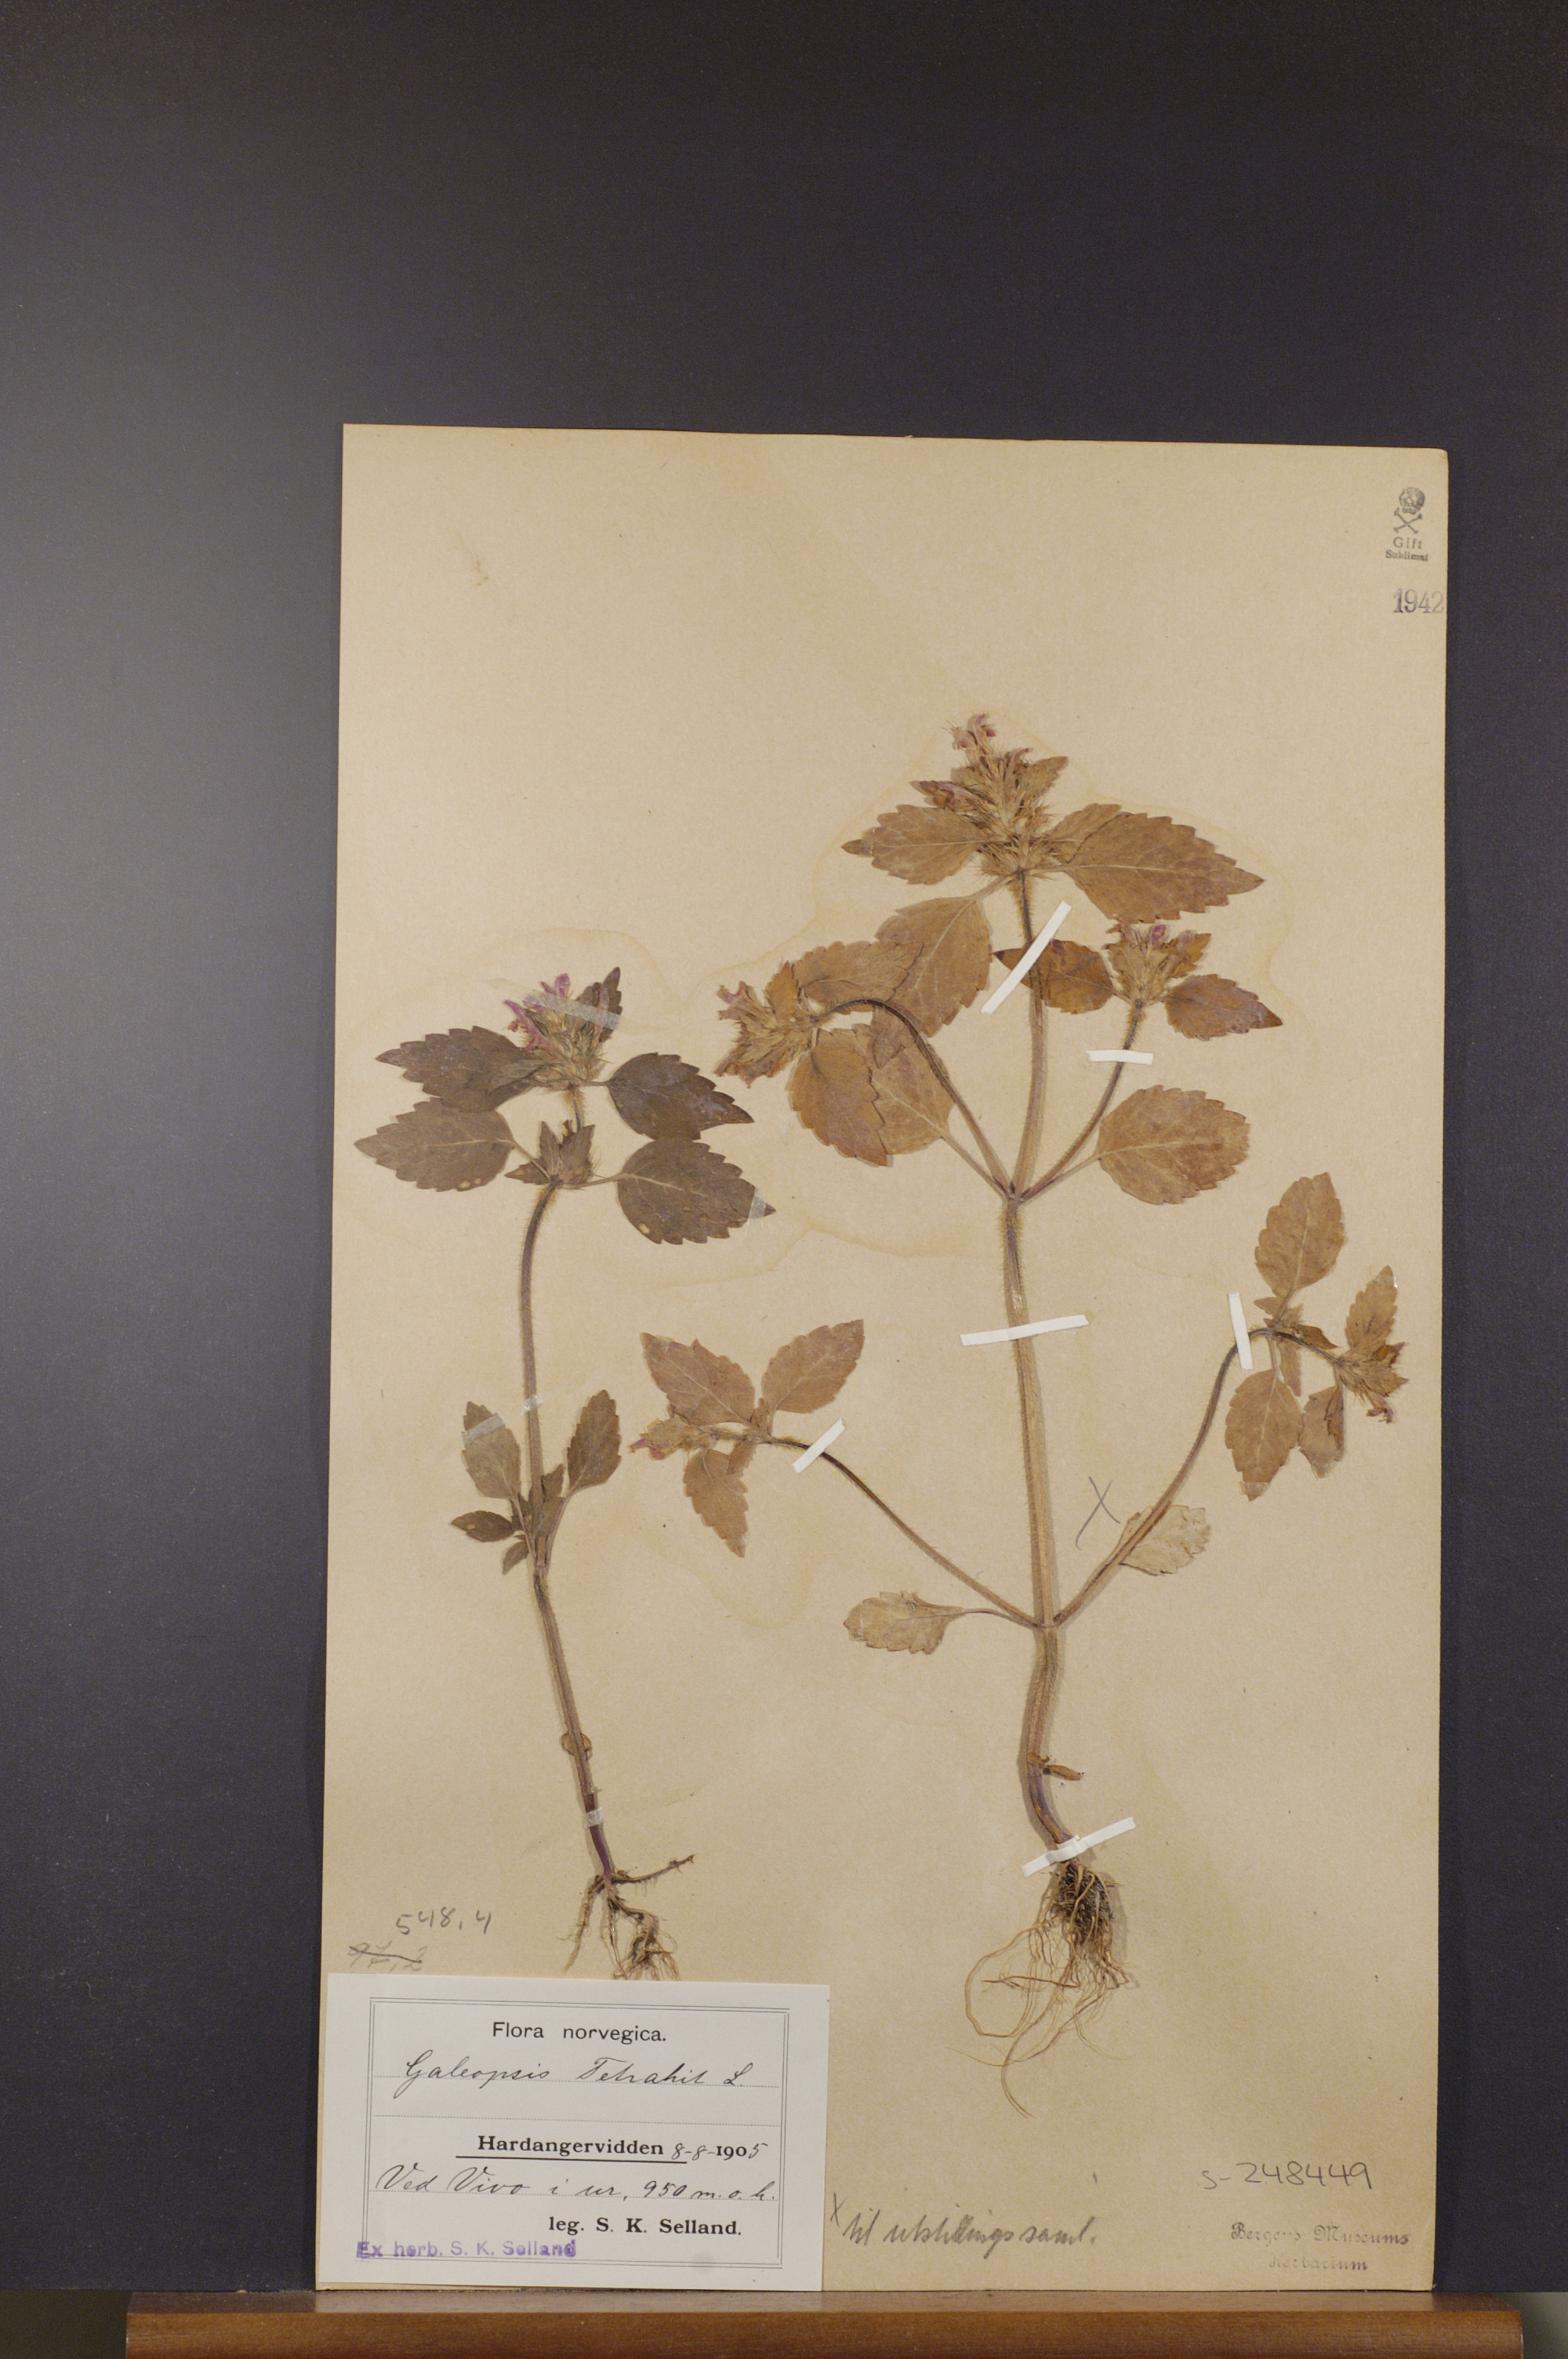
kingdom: Plantae
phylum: Tracheophyta
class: Magnoliopsida
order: Lamiales
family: Lamiaceae
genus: Galeopsis
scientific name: Galeopsis tetrahit
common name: Common hemp-nettle
